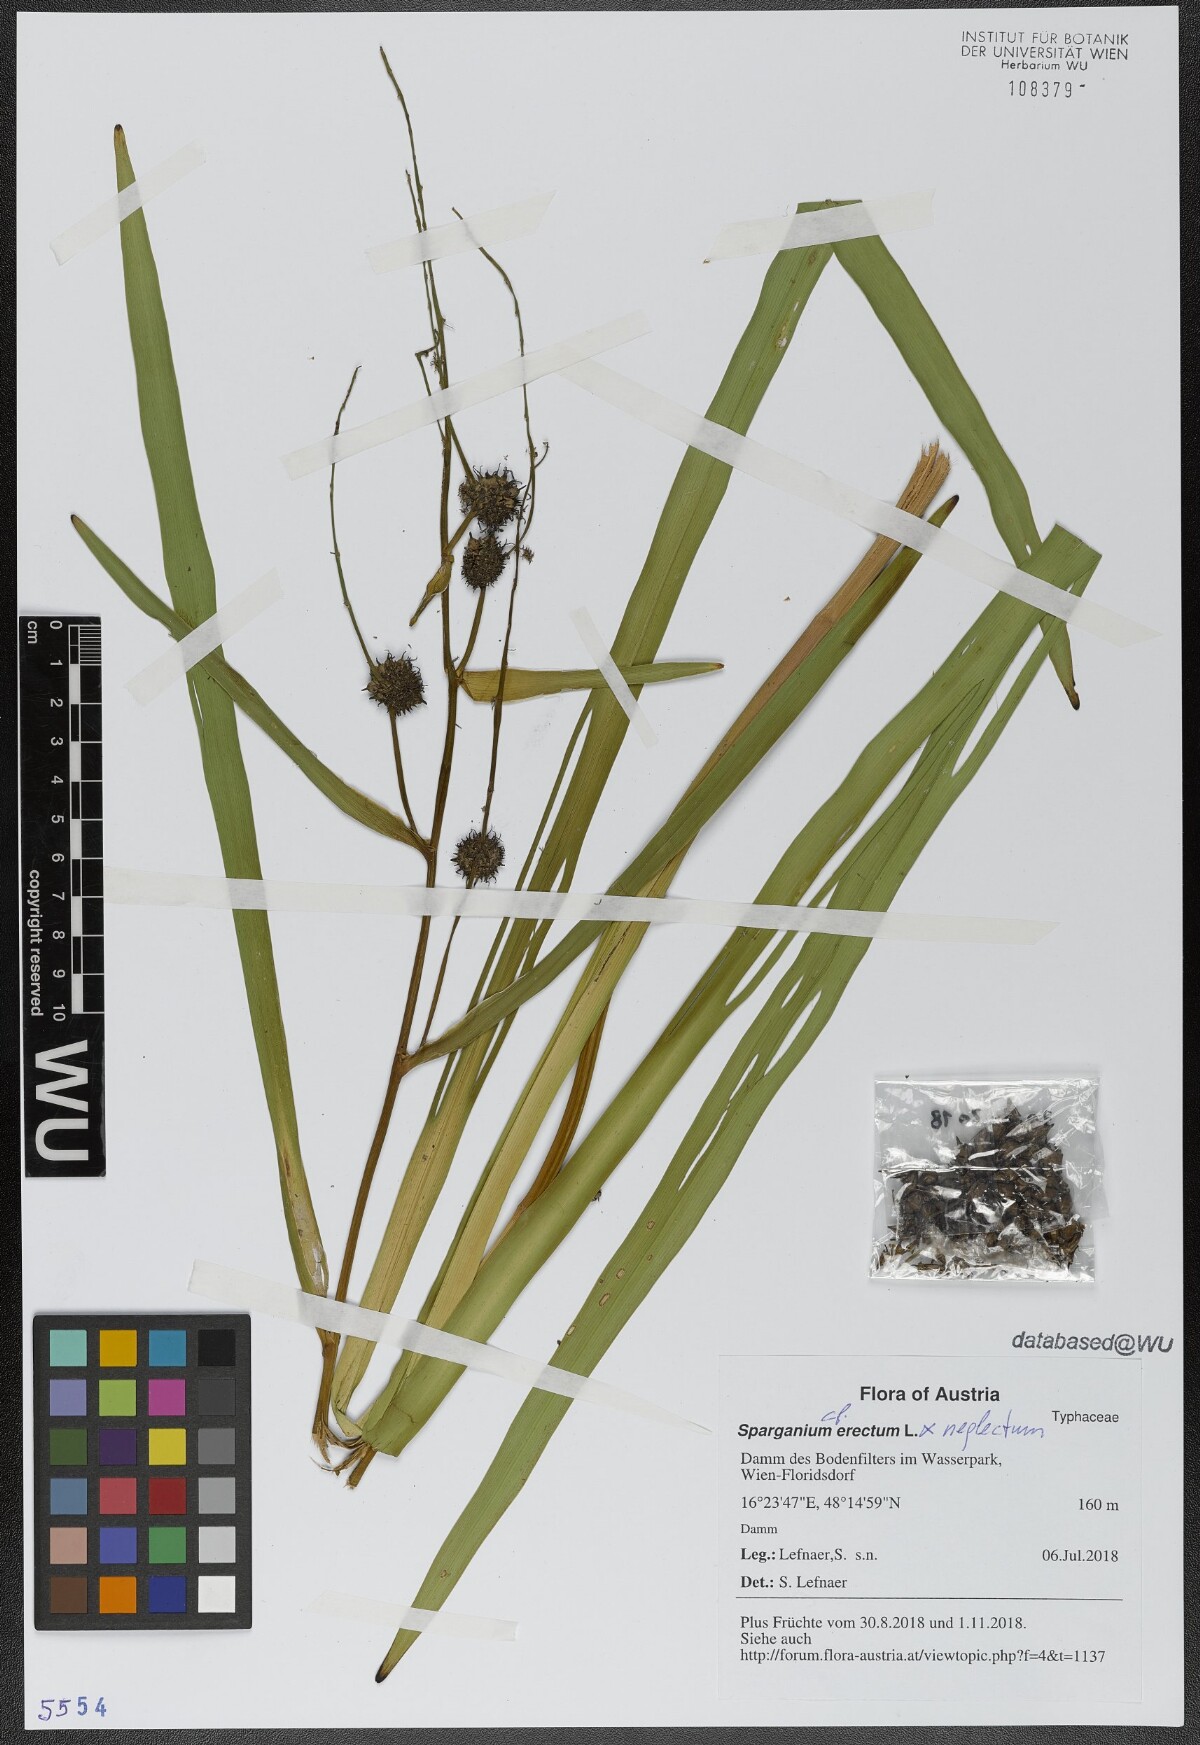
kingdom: Plantae
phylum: Tracheophyta
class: Liliopsida
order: Poales
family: Typhaceae
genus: Sparganium
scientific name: Sparganium erectum
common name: Branched bur-reed
